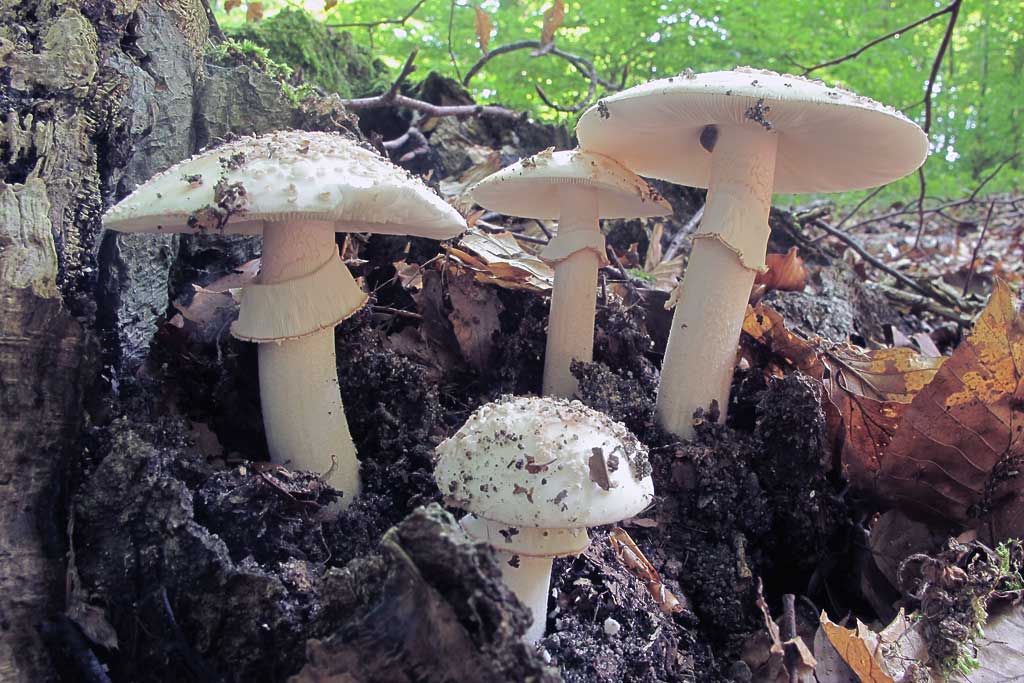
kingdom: Fungi
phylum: Basidiomycota
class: Agaricomycetes
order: Agaricales
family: Amanitaceae
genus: Amanita
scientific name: Amanita rubescens
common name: Blusher
